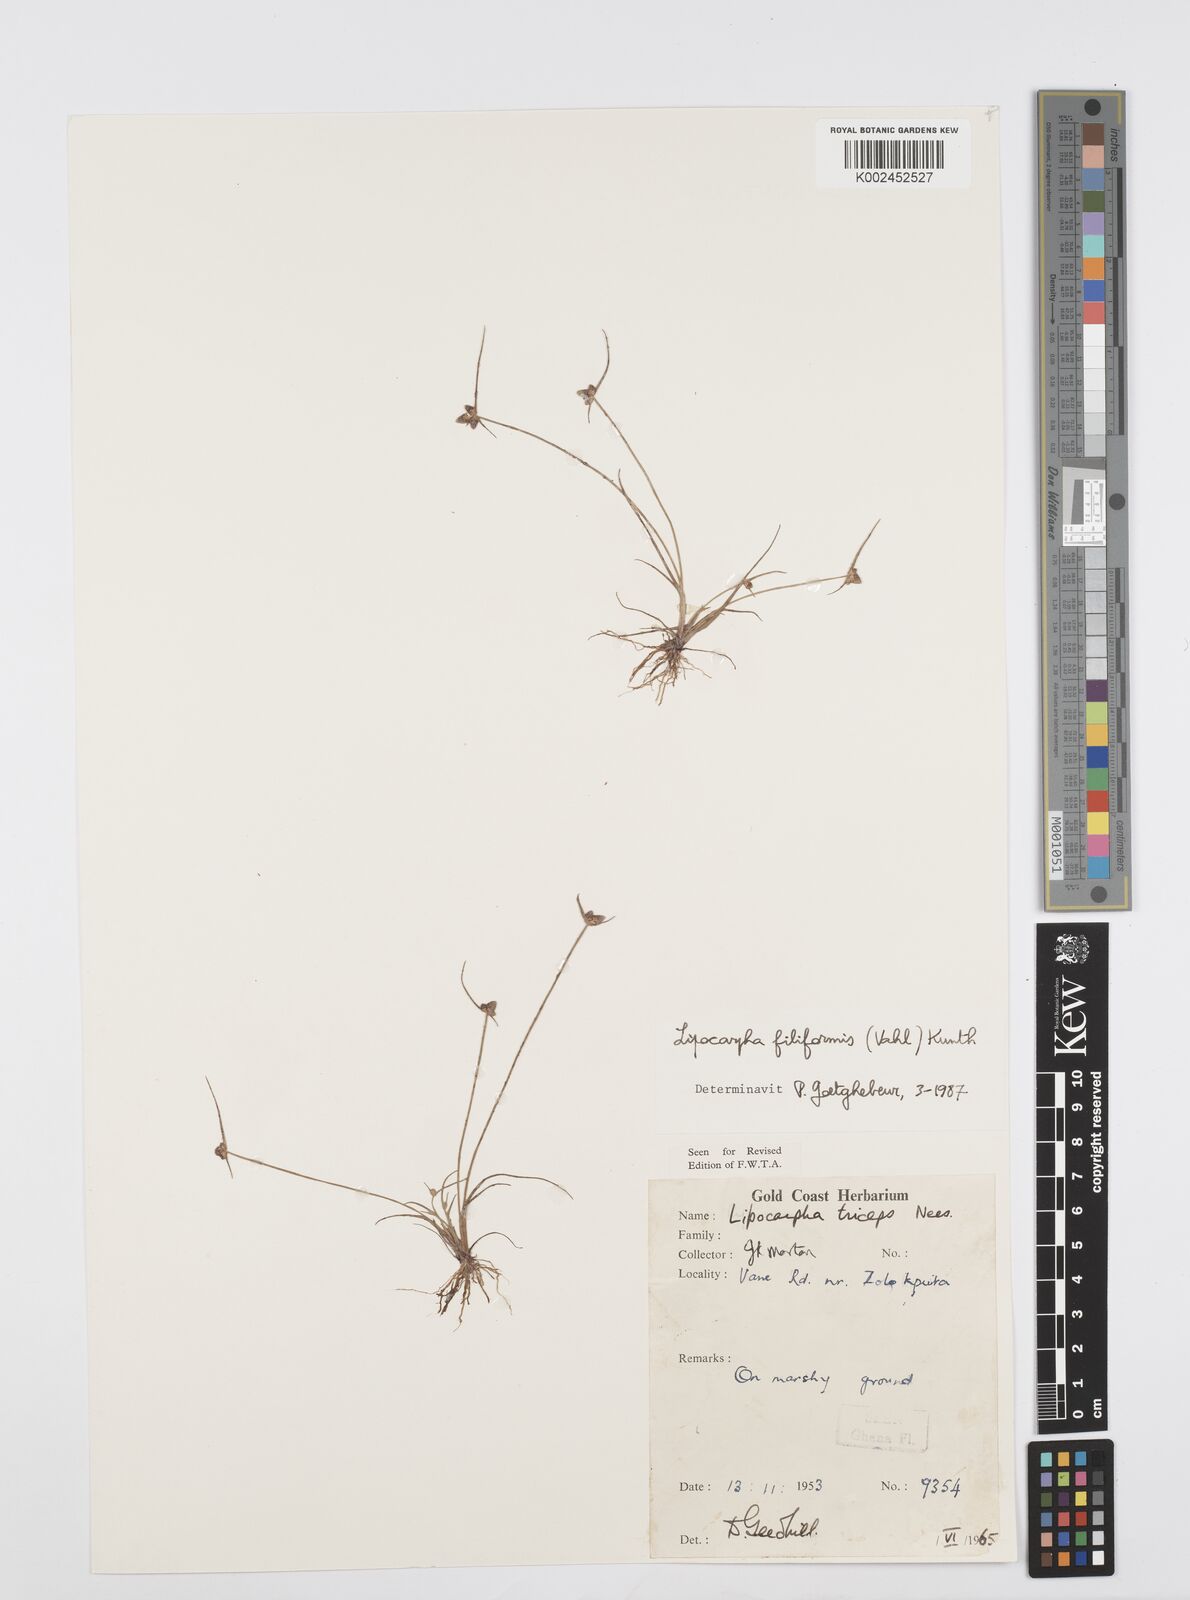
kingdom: Plantae
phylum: Tracheophyta
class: Liliopsida
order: Poales
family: Cyperaceae
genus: Cyperus
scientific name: Cyperus filiformis
